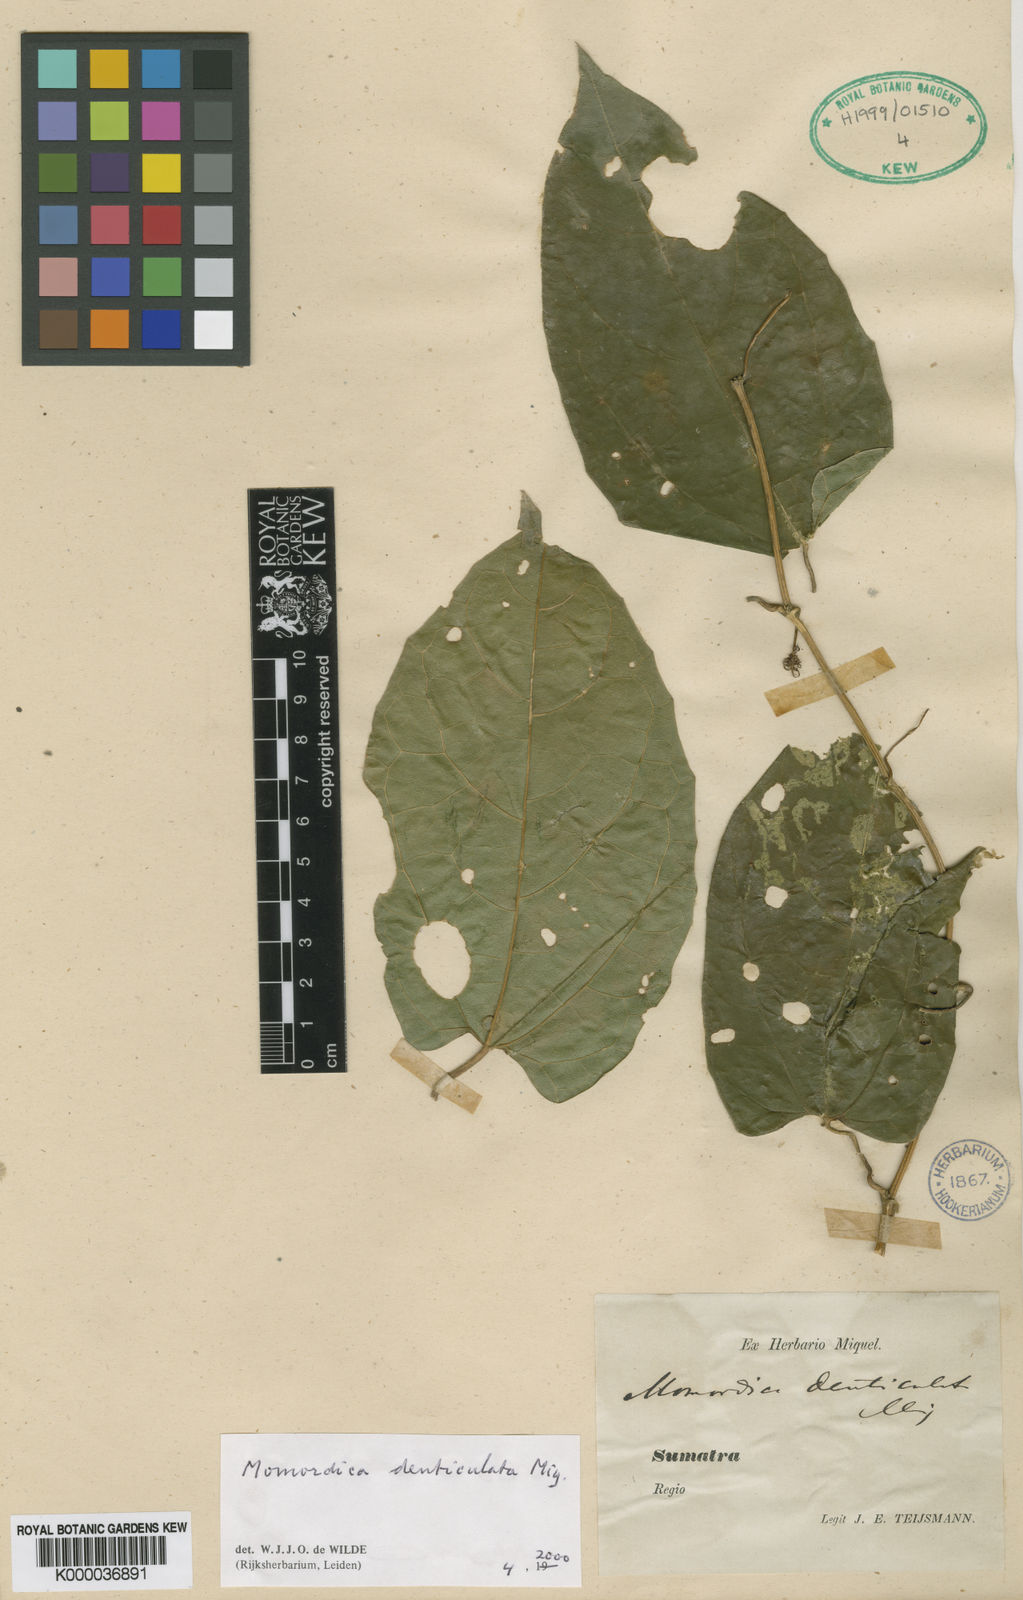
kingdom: Plantae
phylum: Tracheophyta
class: Magnoliopsida
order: Cucurbitales
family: Cucurbitaceae
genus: Momordica
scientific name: Momordica denticulata
